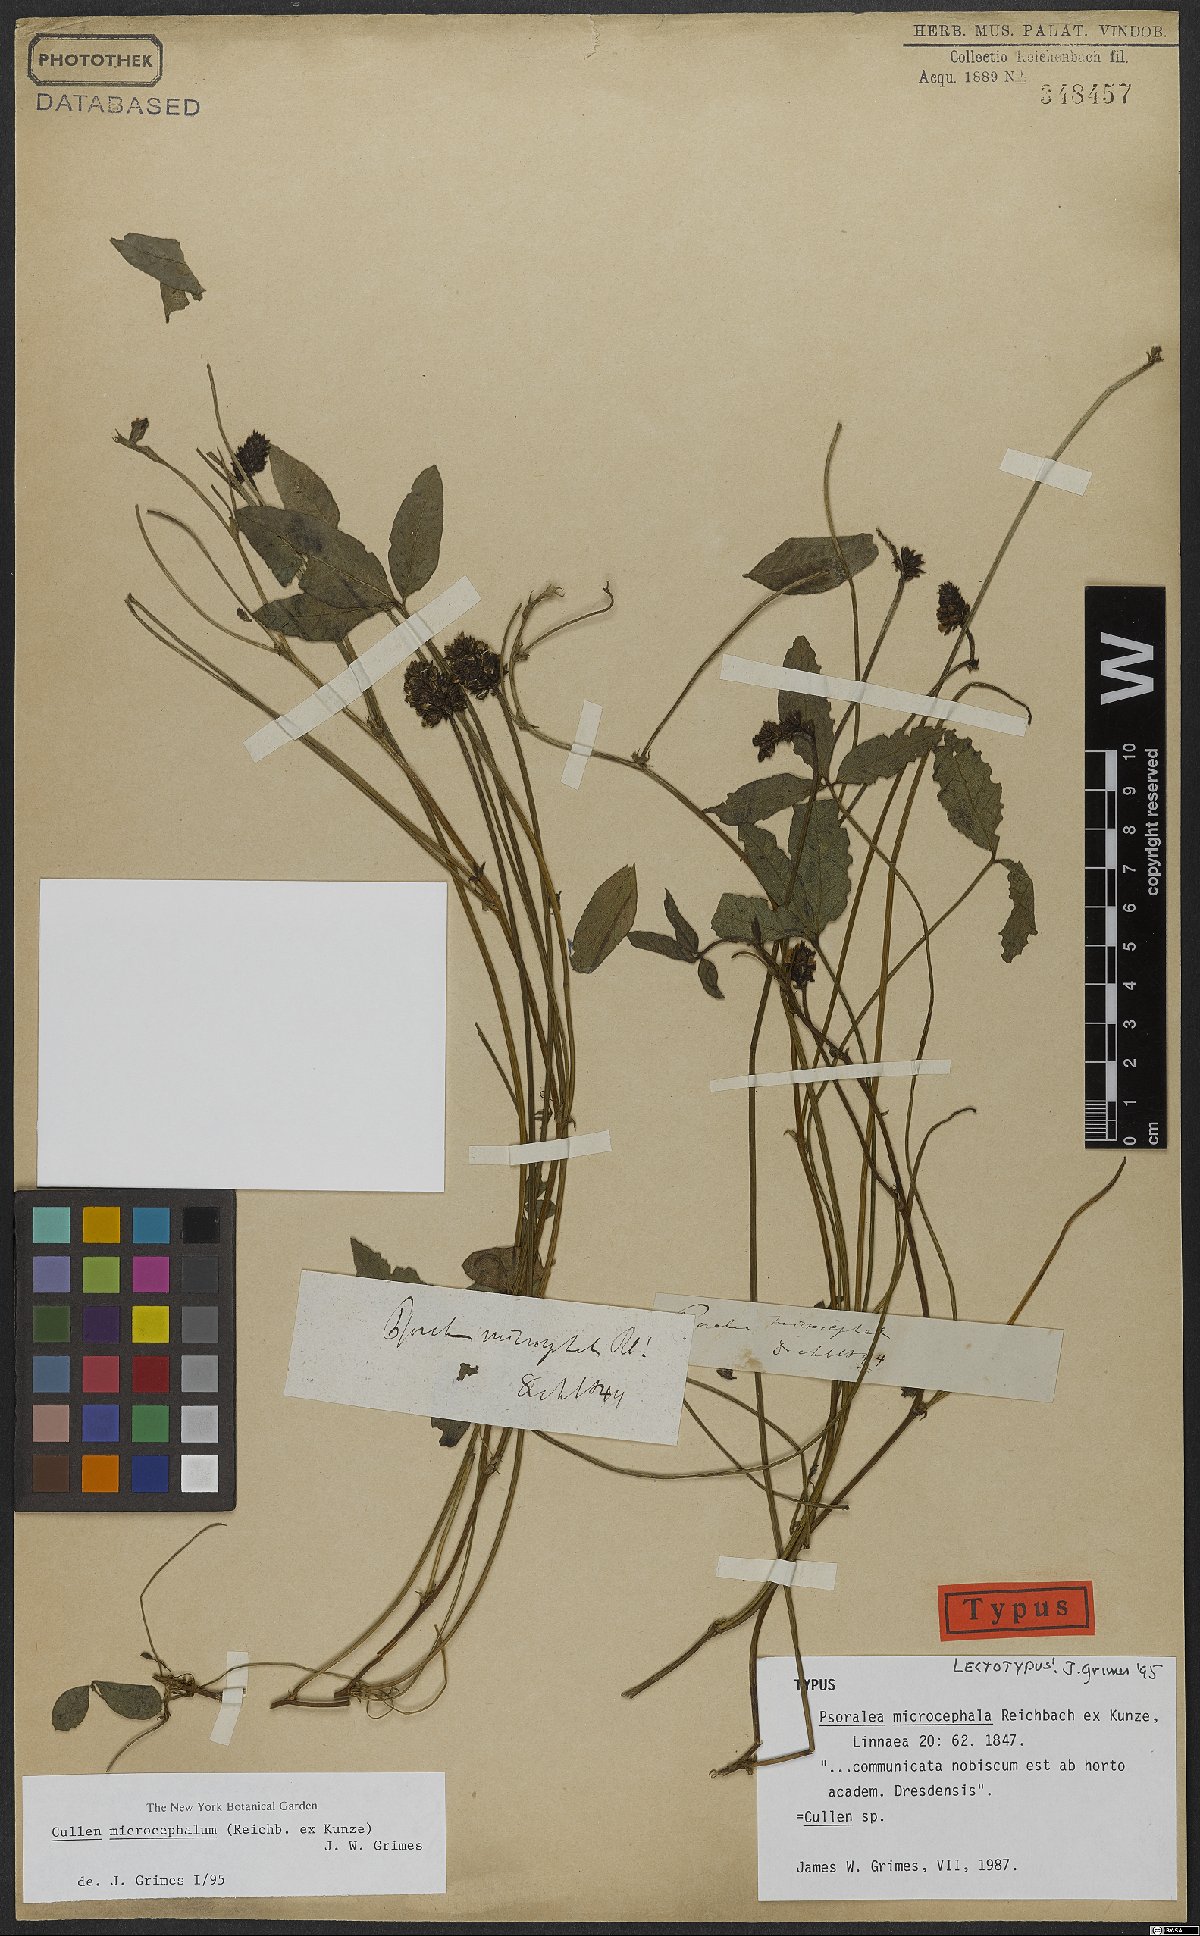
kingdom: Plantae
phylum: Tracheophyta
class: Magnoliopsida
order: Fabales
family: Fabaceae
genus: Cullen
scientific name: Cullen microcephalum
